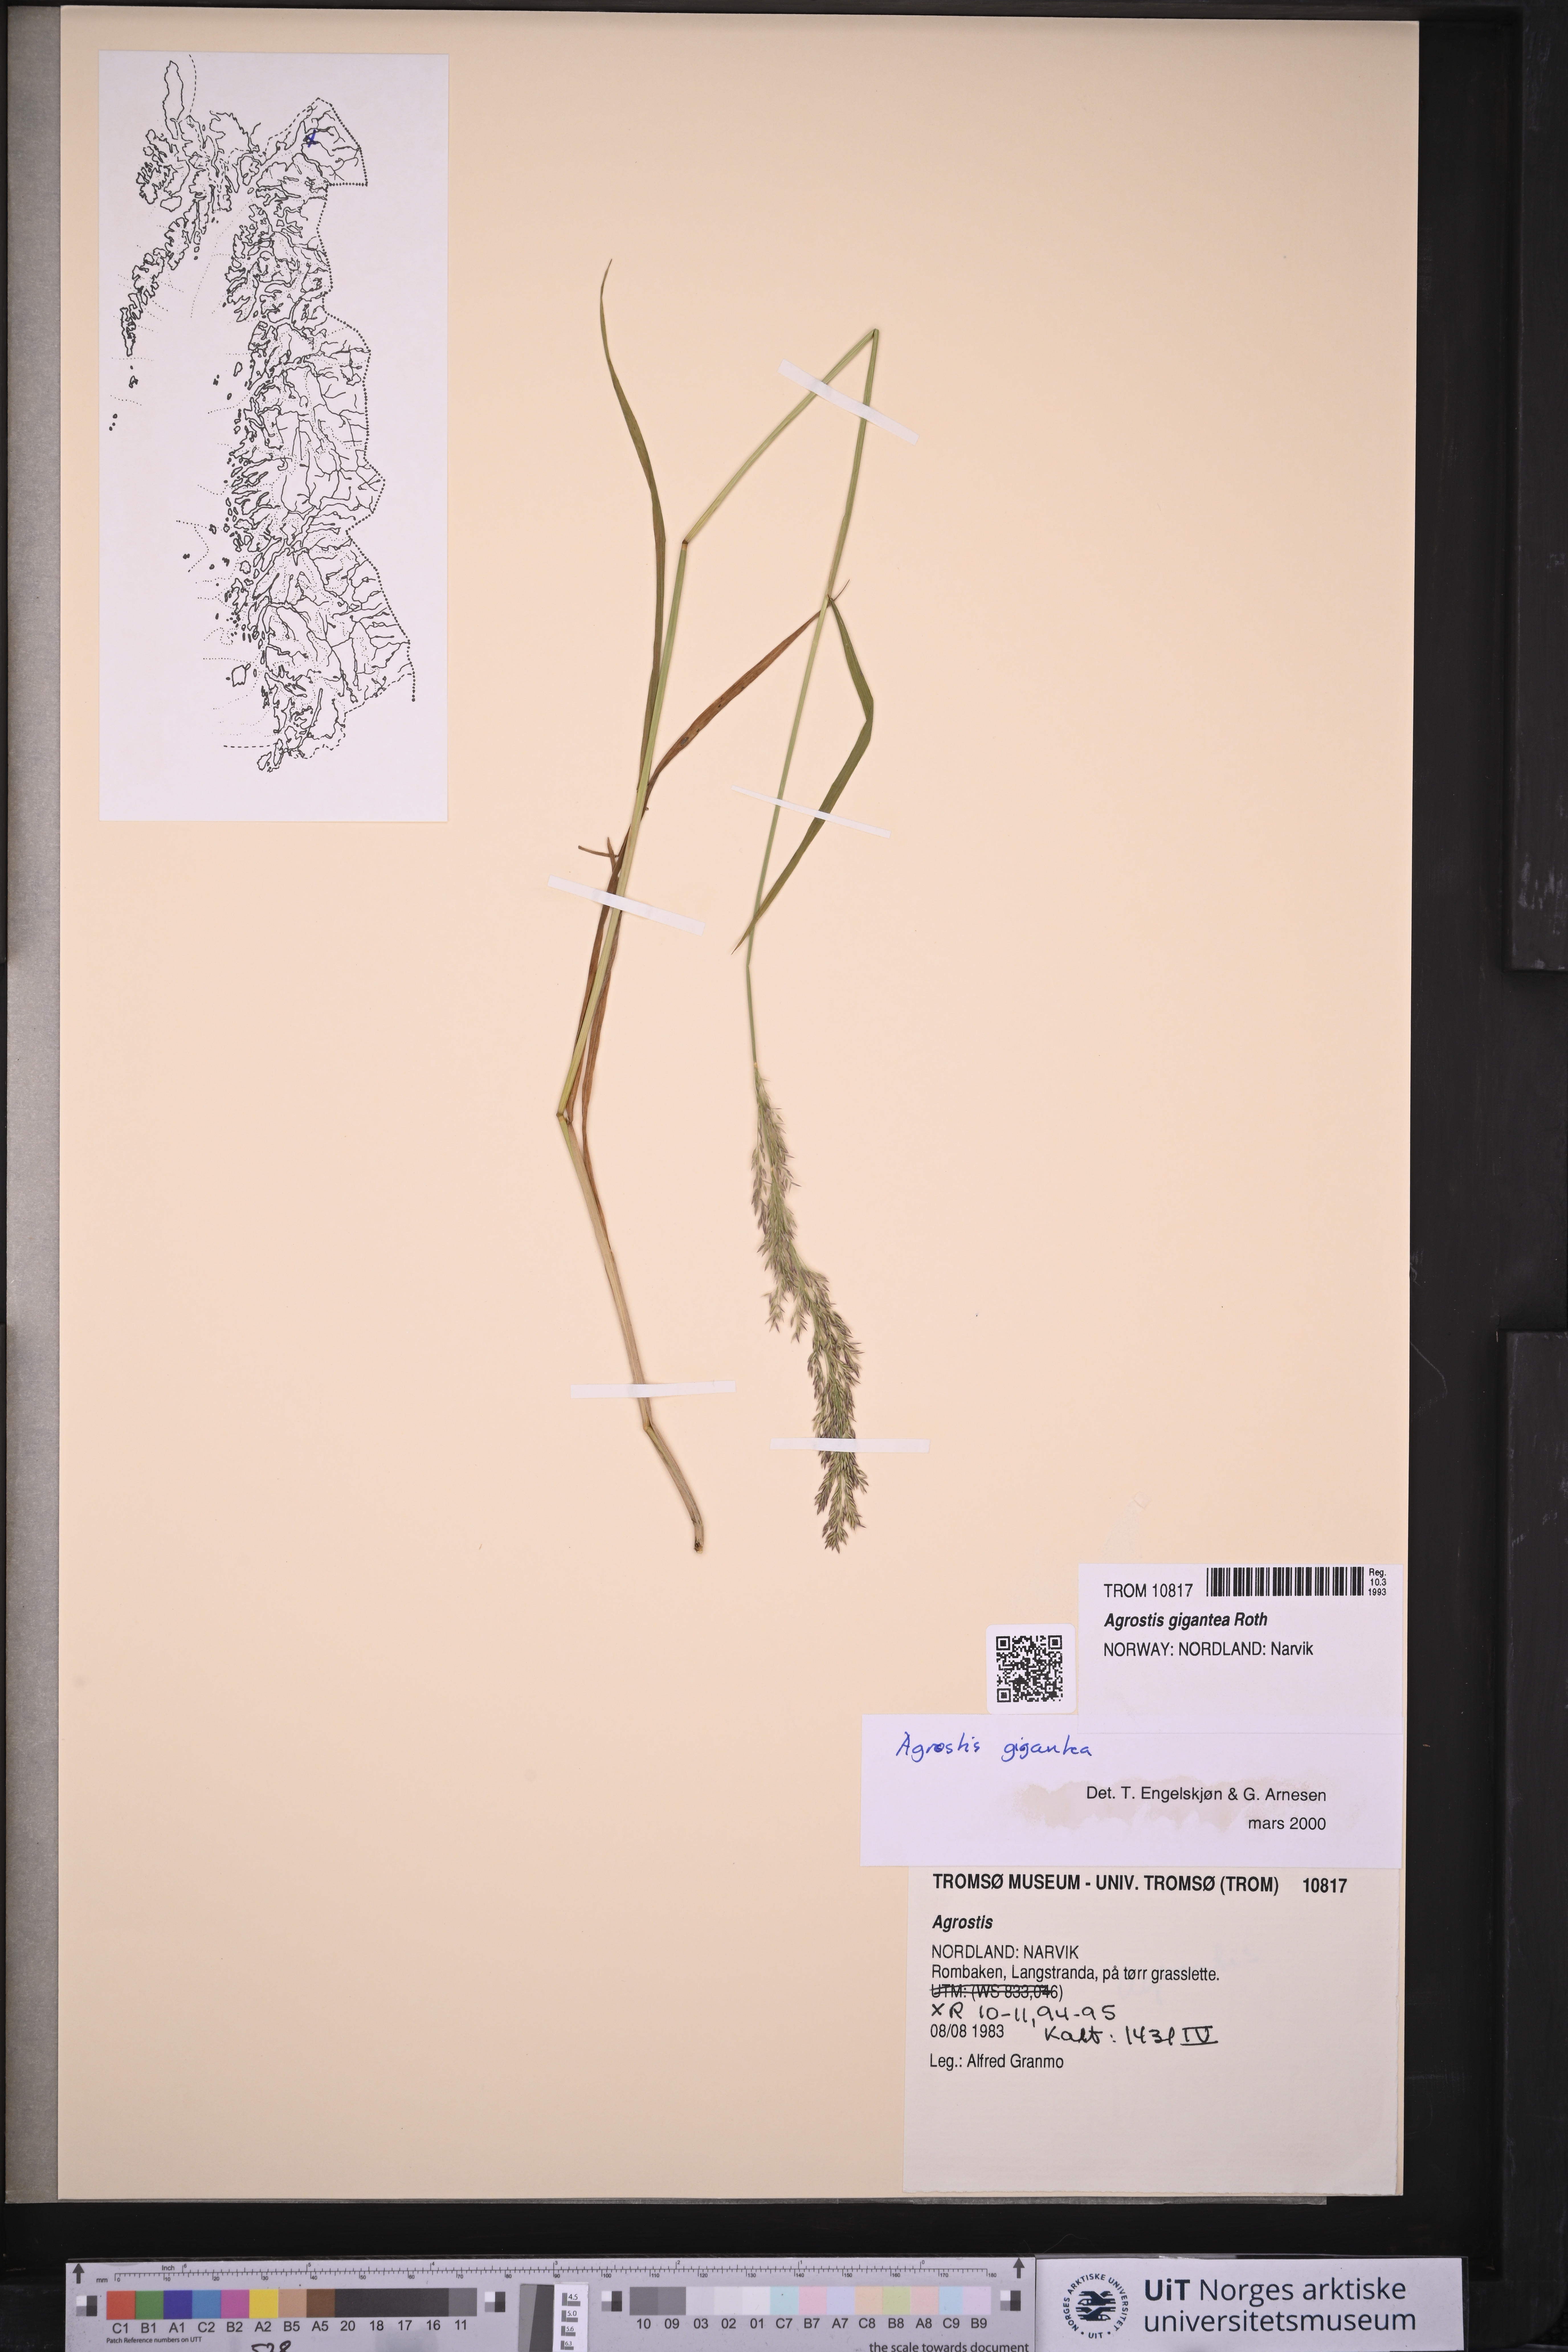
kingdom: Plantae
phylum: Tracheophyta
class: Liliopsida
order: Poales
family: Poaceae
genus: Agrostis
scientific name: Agrostis gigantea
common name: Black bent
